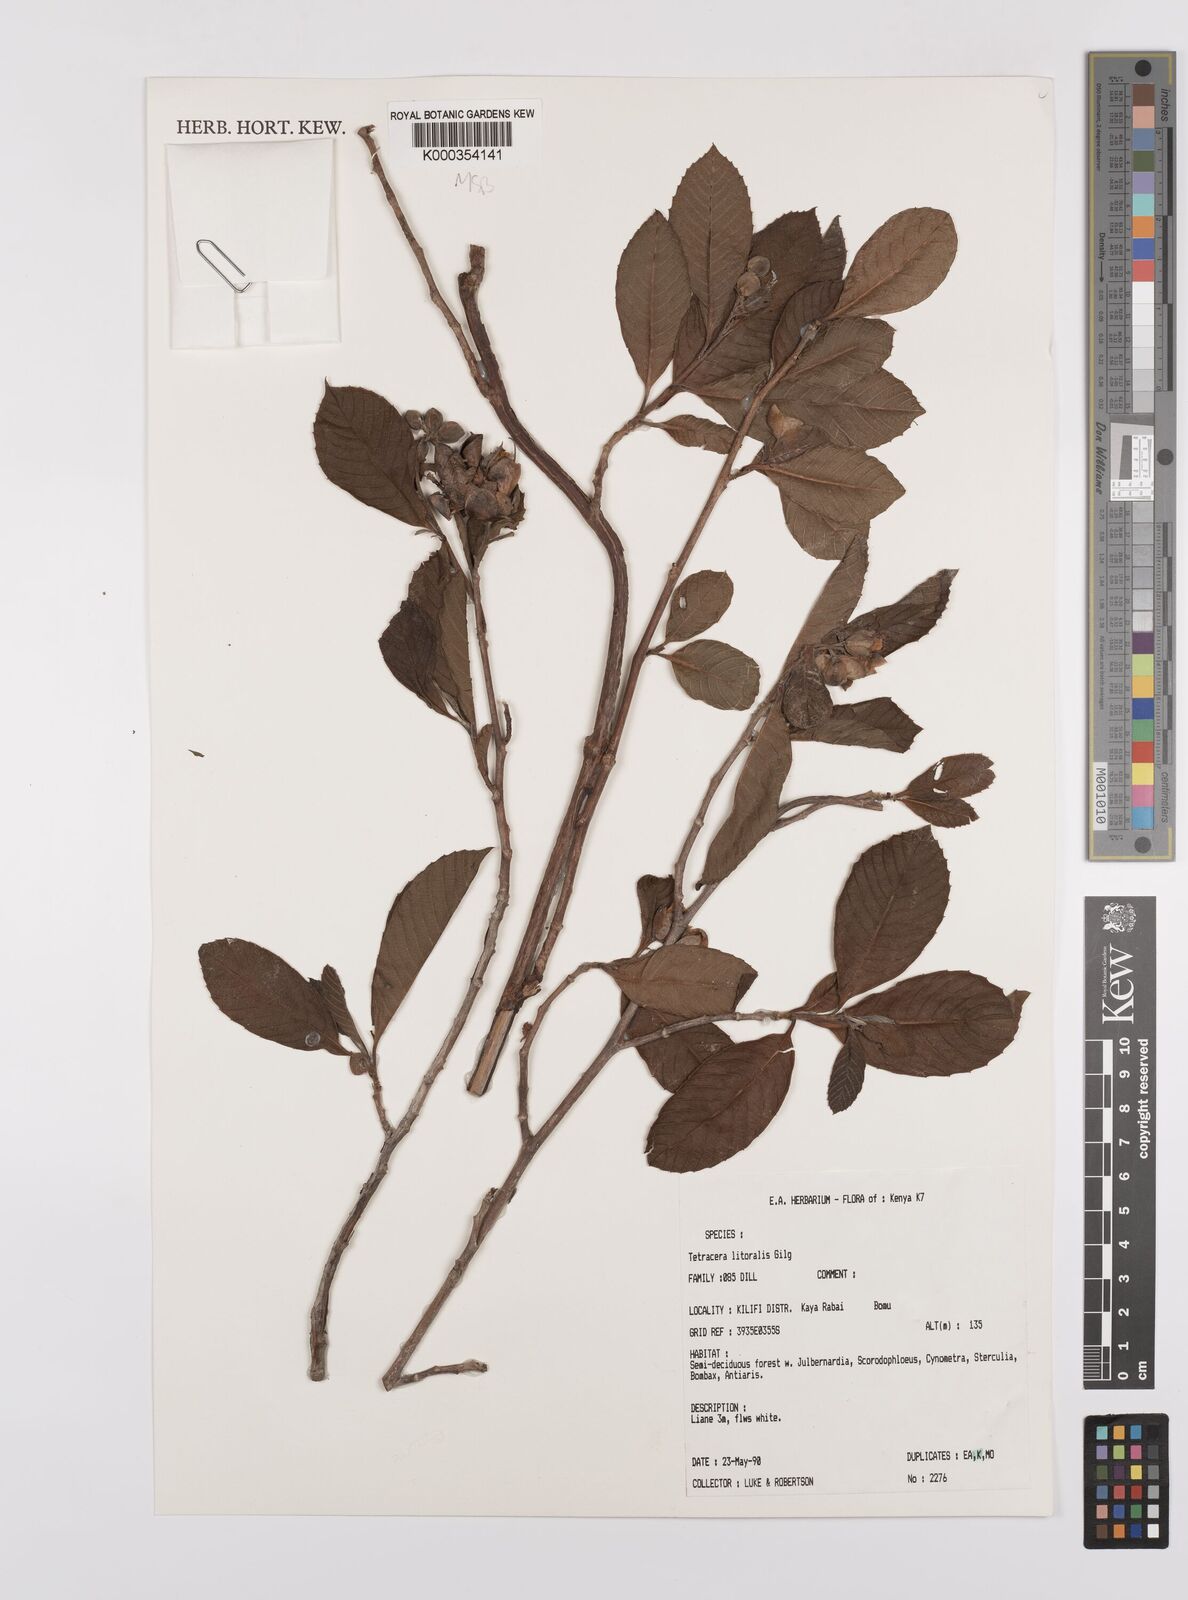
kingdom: Plantae
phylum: Tracheophyta
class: Magnoliopsida
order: Dilleniales
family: Dilleniaceae
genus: Tetracera
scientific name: Tetracera litoralis
